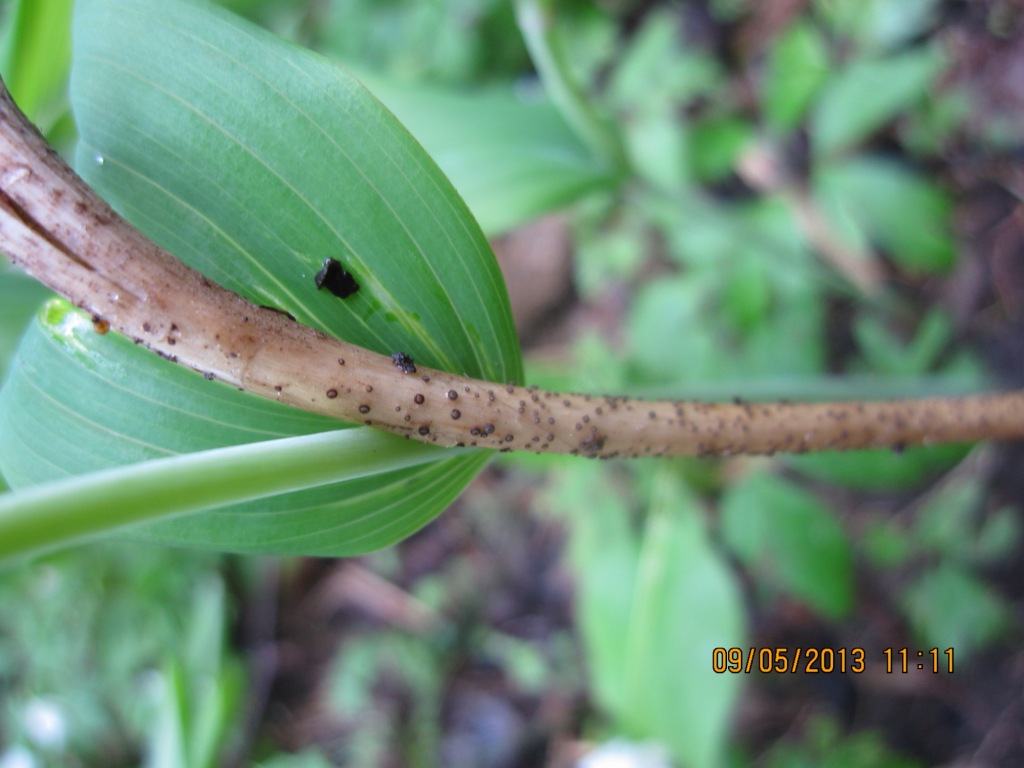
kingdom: Fungi
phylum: Ascomycota
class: Leotiomycetes
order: Helotiales
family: Solenopeziaceae
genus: Lasiobelonium
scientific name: Lasiobelonium nidulus
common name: rede-frynseskive
